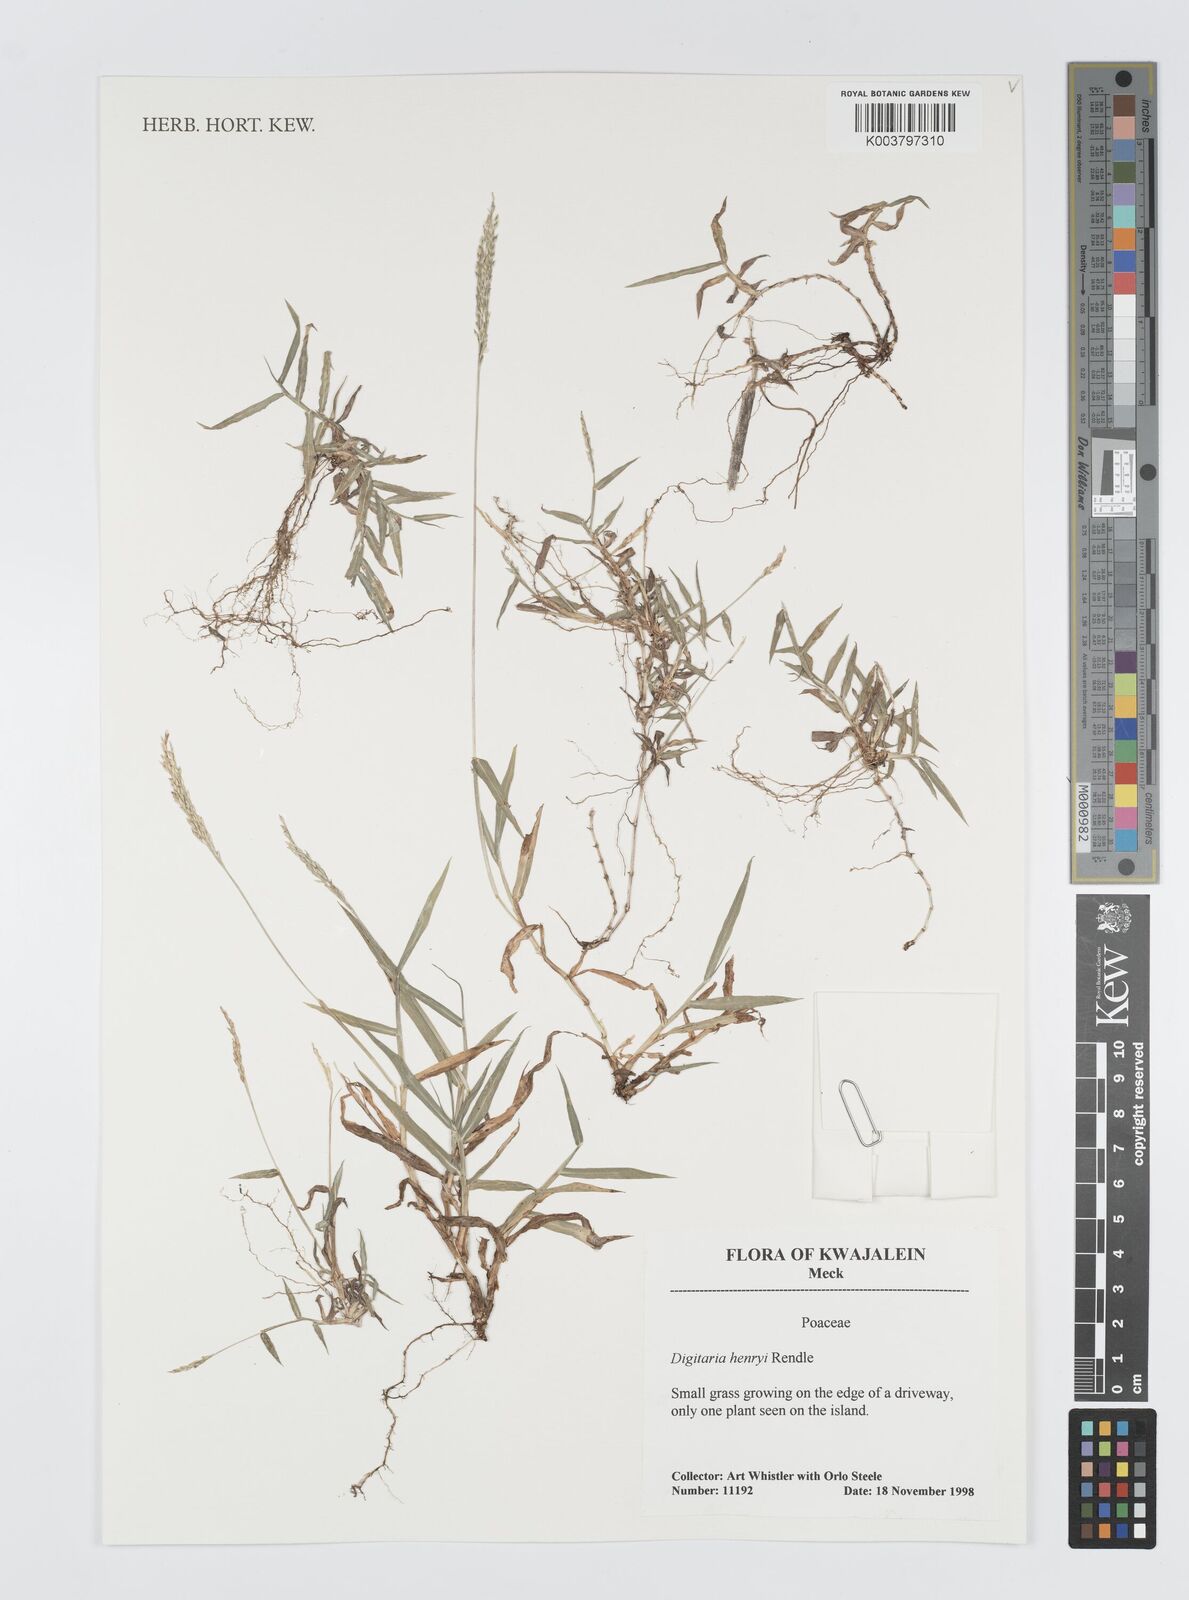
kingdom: Plantae
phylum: Tracheophyta
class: Liliopsida
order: Poales
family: Poaceae
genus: Digitaria
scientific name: Digitaria ciliaris
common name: Tropical finger-grass
